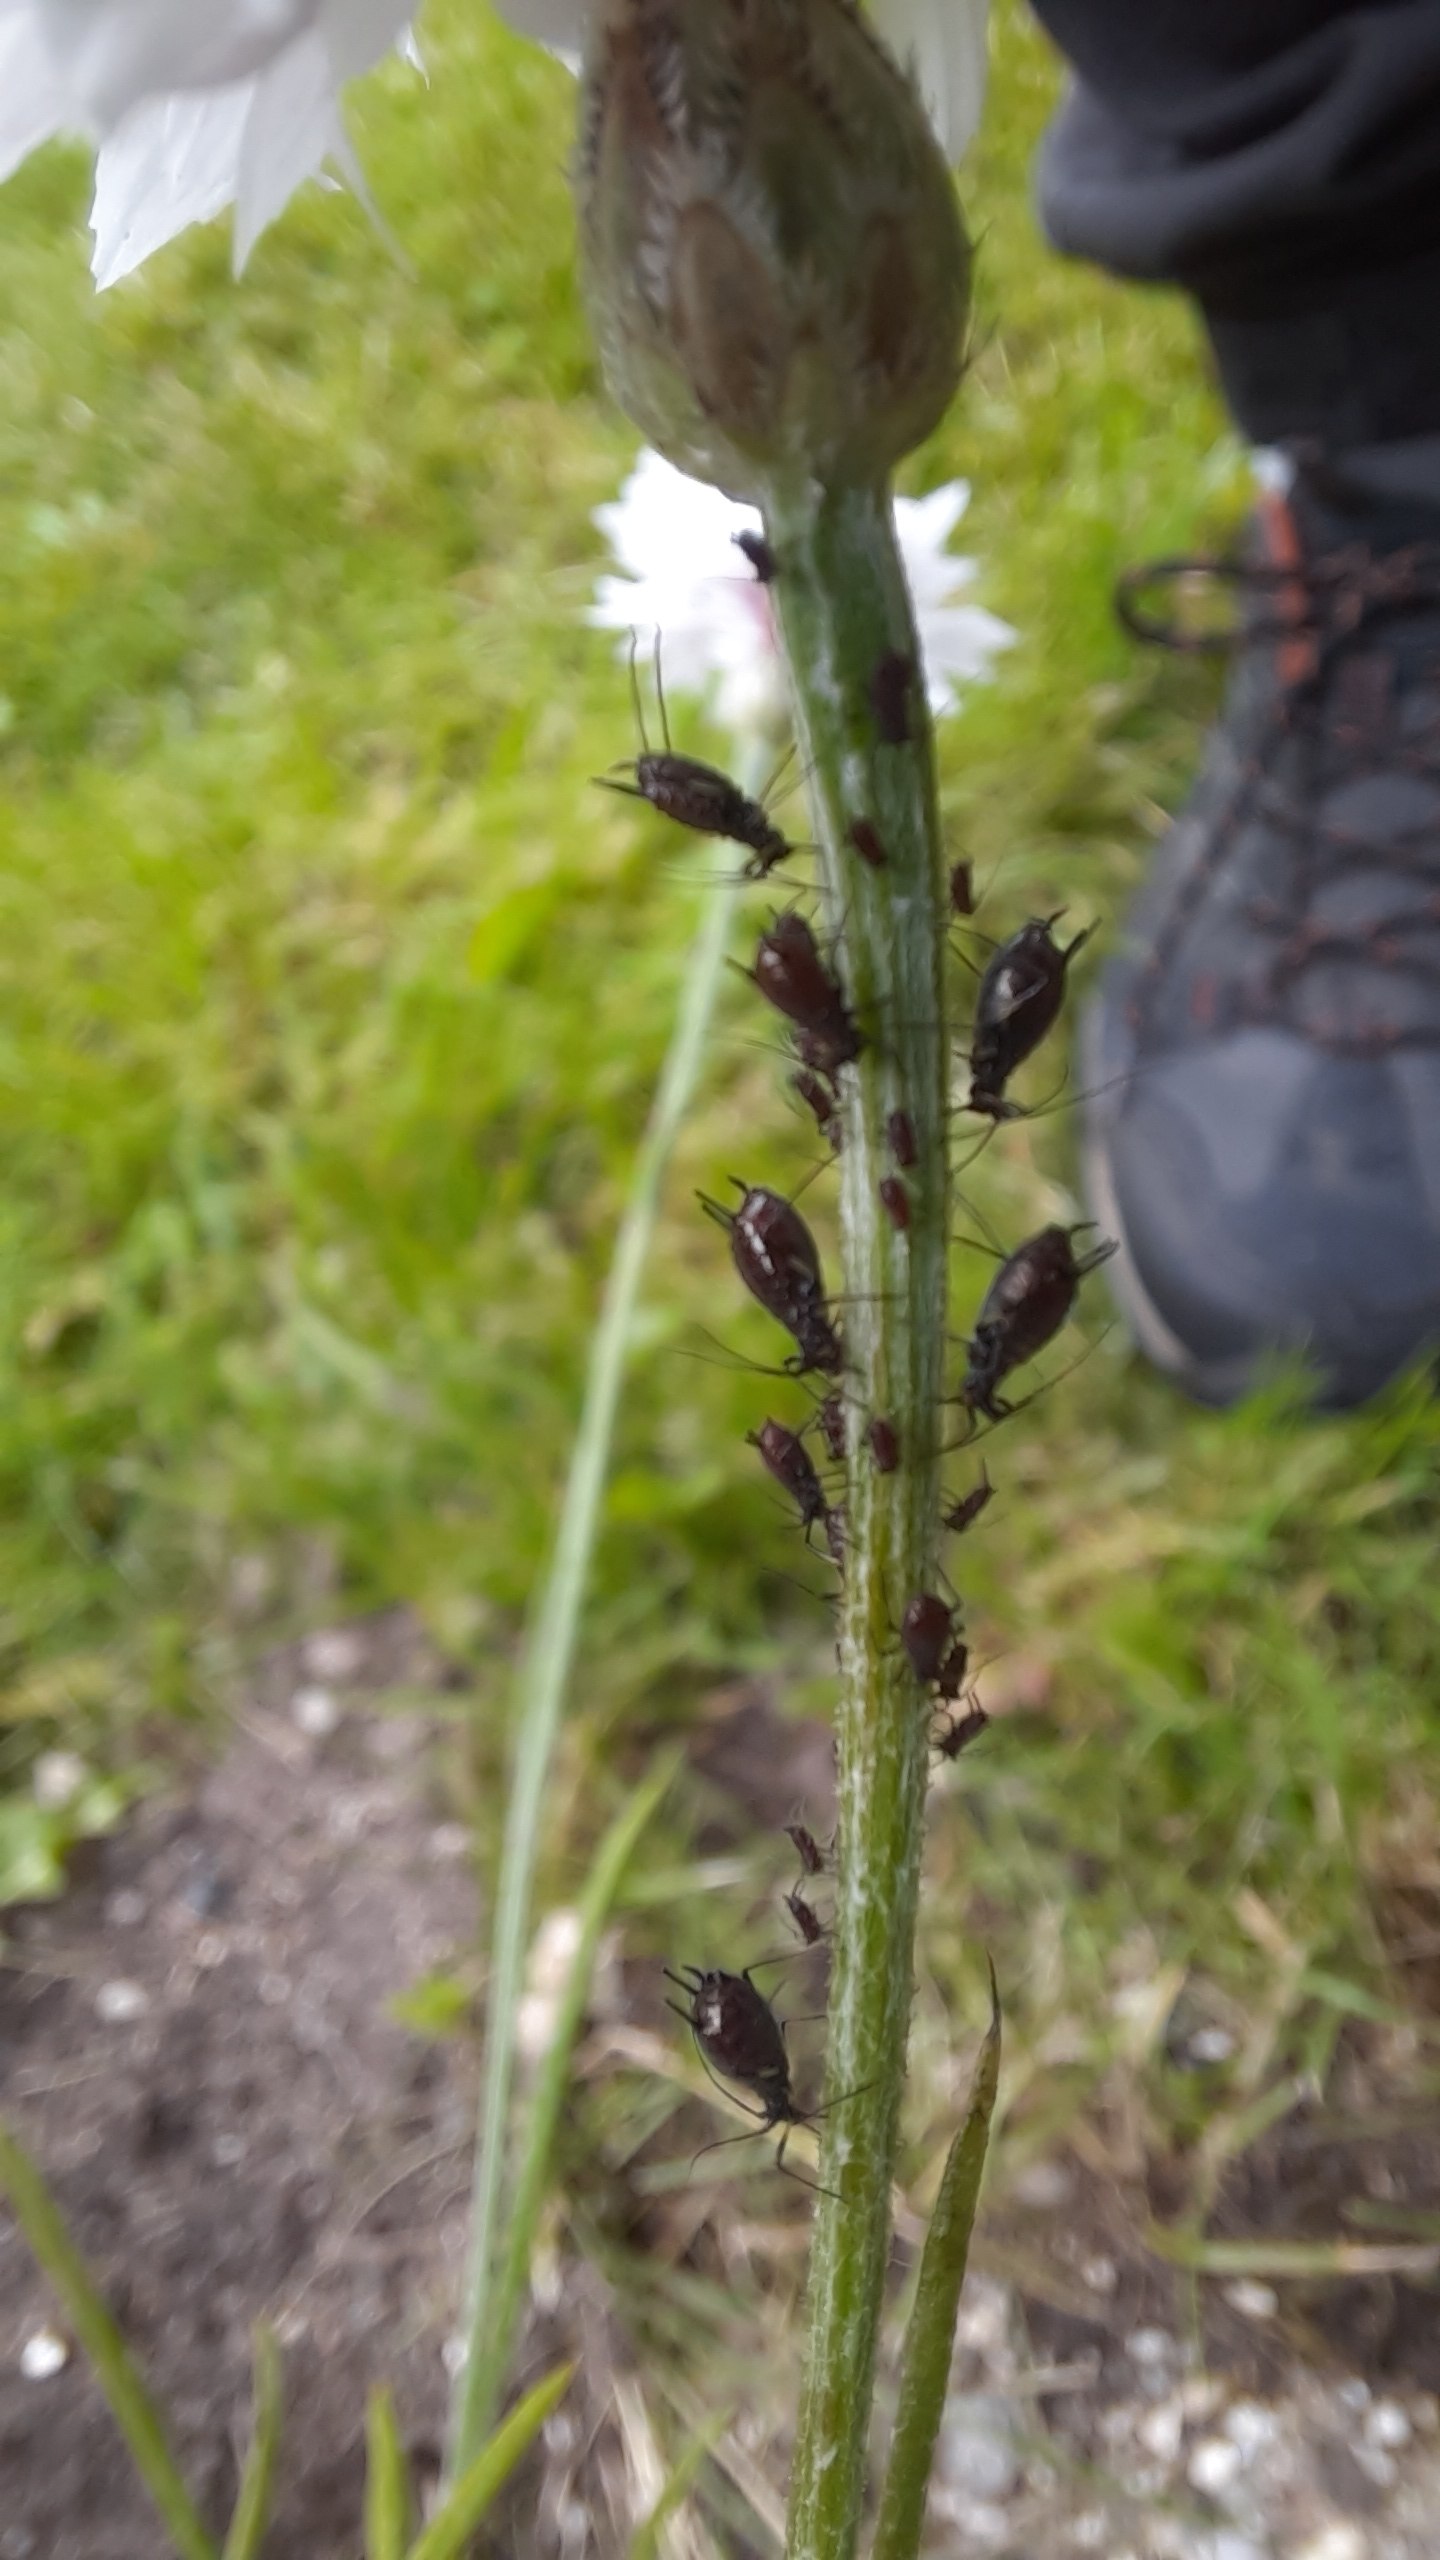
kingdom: Animalia
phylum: Arthropoda
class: Insecta
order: Hemiptera
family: Aphididae
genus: Uroleucon
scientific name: Uroleucon hypochoeridis
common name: Brun kongepenbladlus
